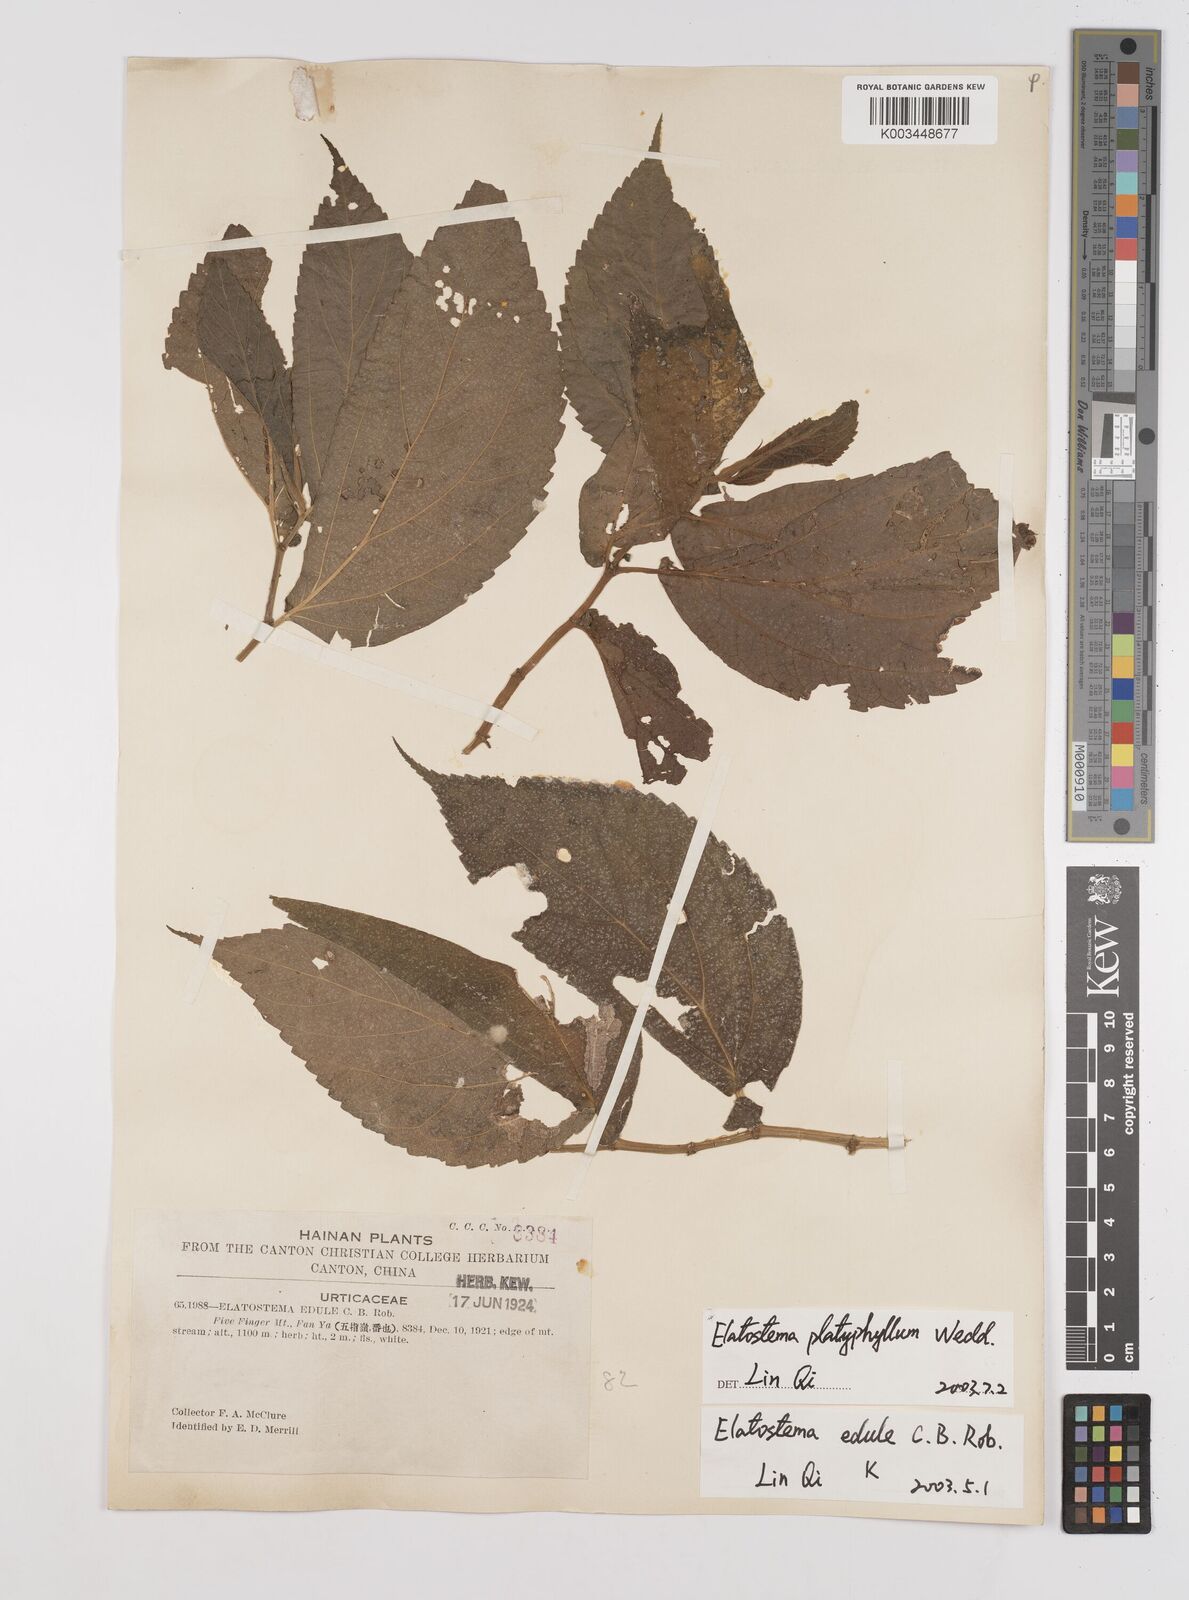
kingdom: Plantae
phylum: Tracheophyta
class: Magnoliopsida
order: Rosales
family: Urticaceae
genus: Elatostema
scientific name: Elatostema platyphyllum
